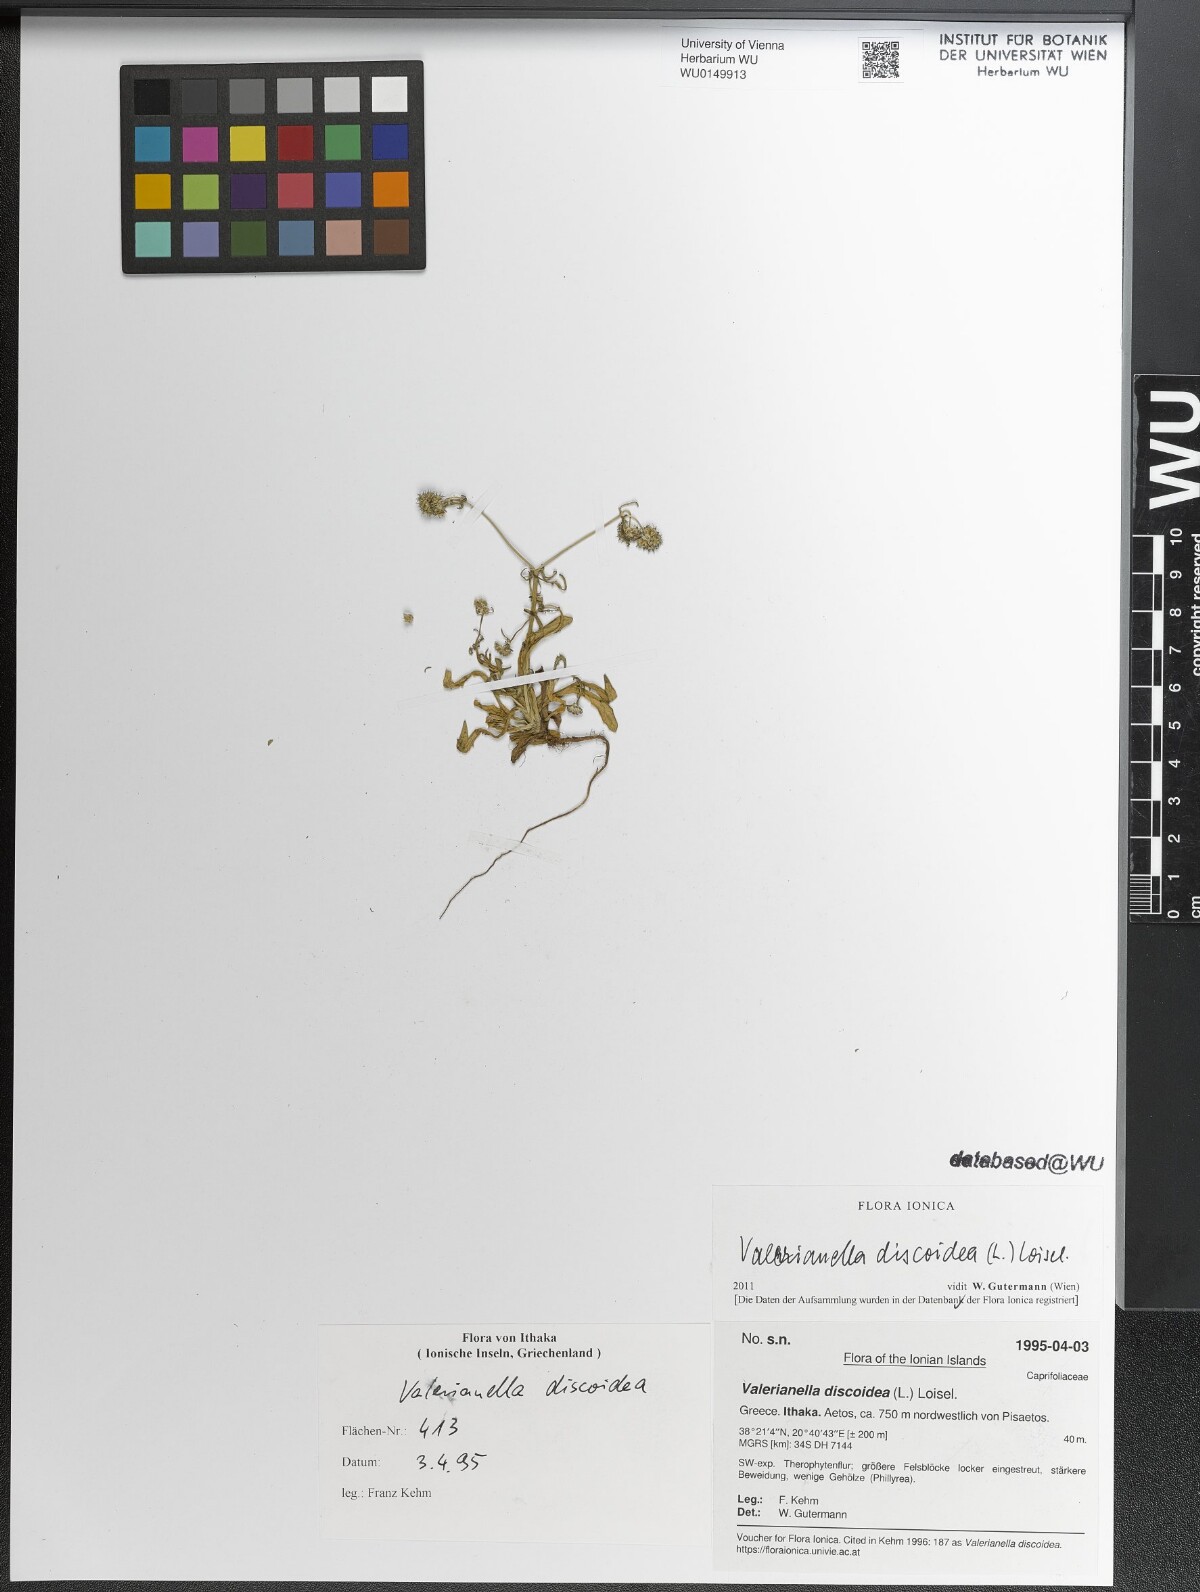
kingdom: Plantae
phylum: Tracheophyta
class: Magnoliopsida
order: Dipsacales
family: Caprifoliaceae
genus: Valerianella
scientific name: Valerianella discoidea
